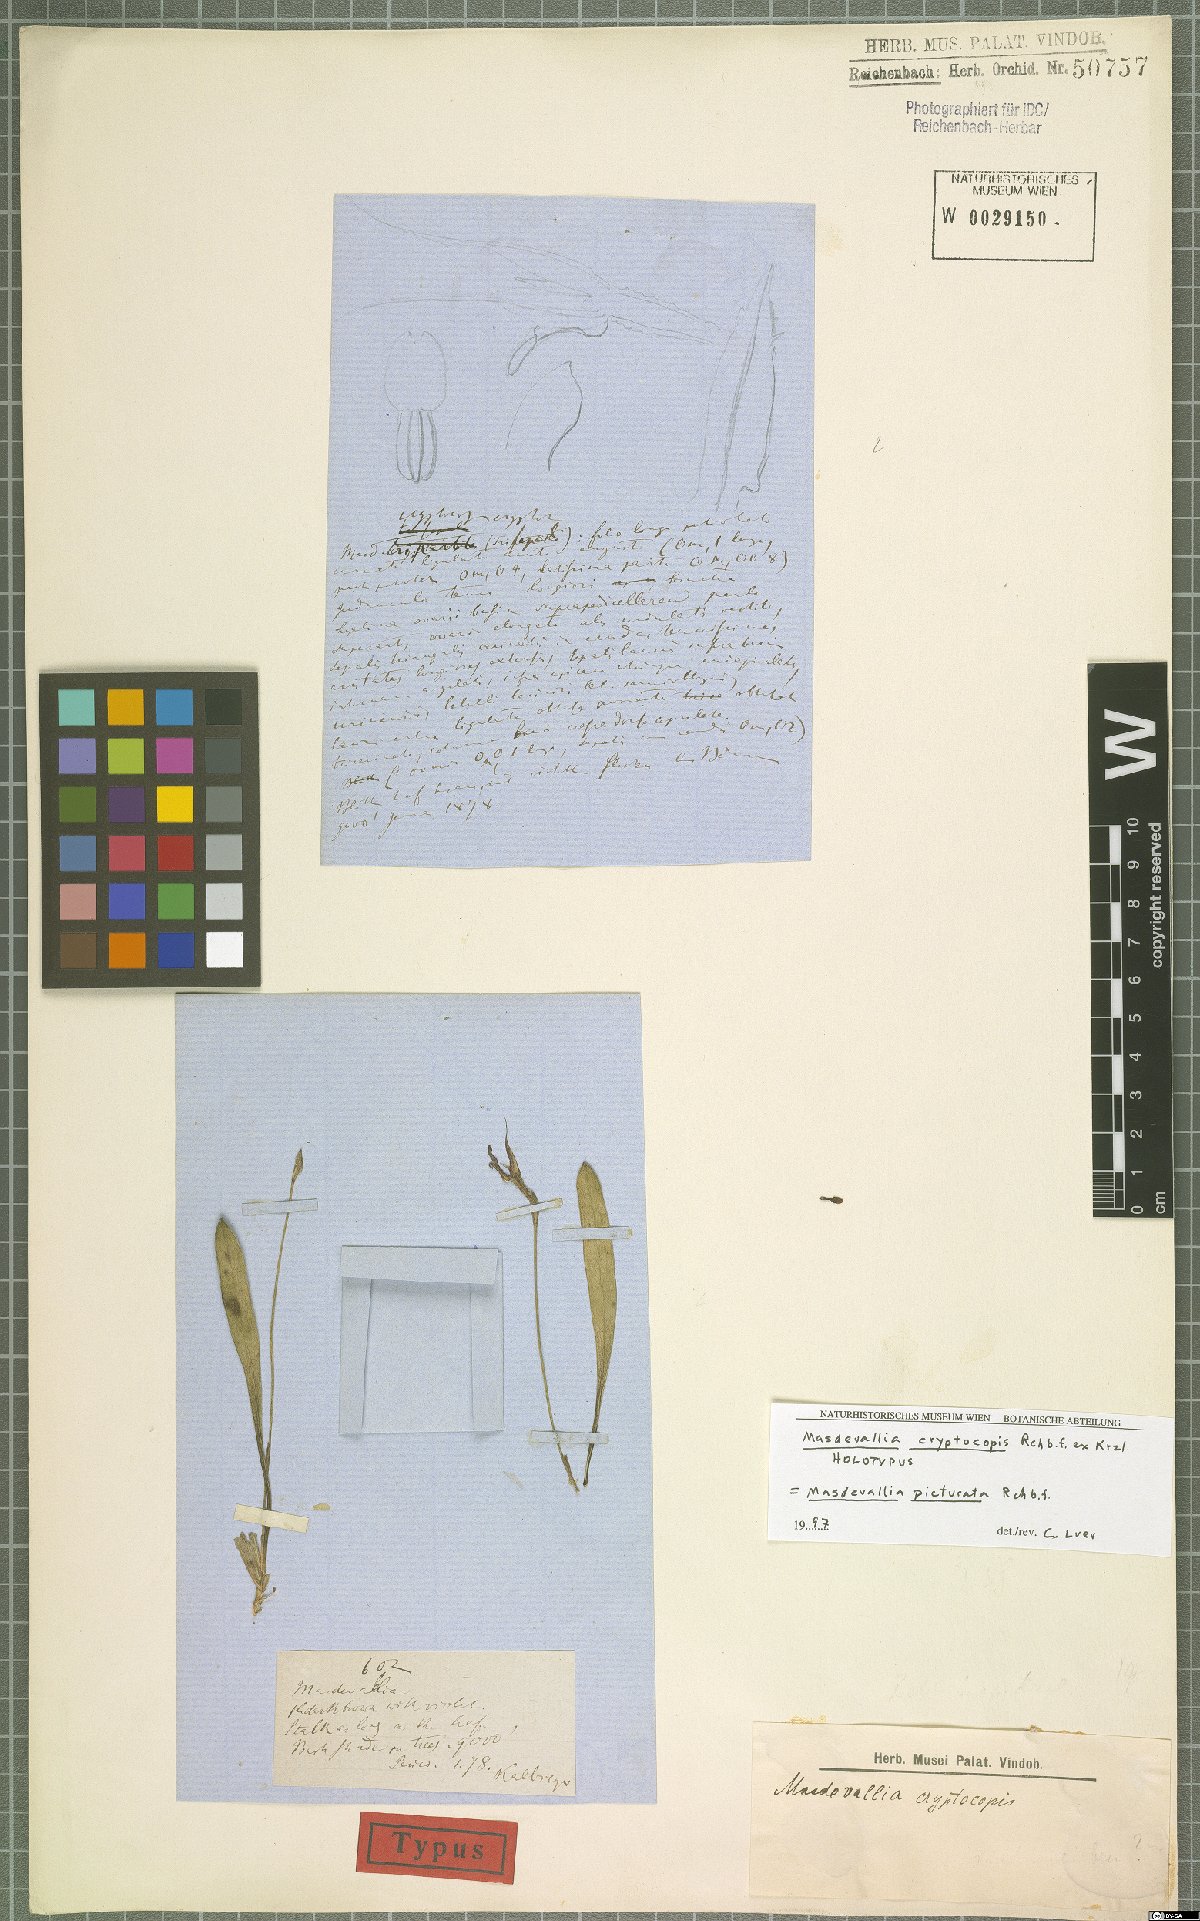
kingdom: Plantae
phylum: Tracheophyta
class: Liliopsida
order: Asparagales
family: Orchidaceae
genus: Masdevallia
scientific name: Masdevallia picturata
